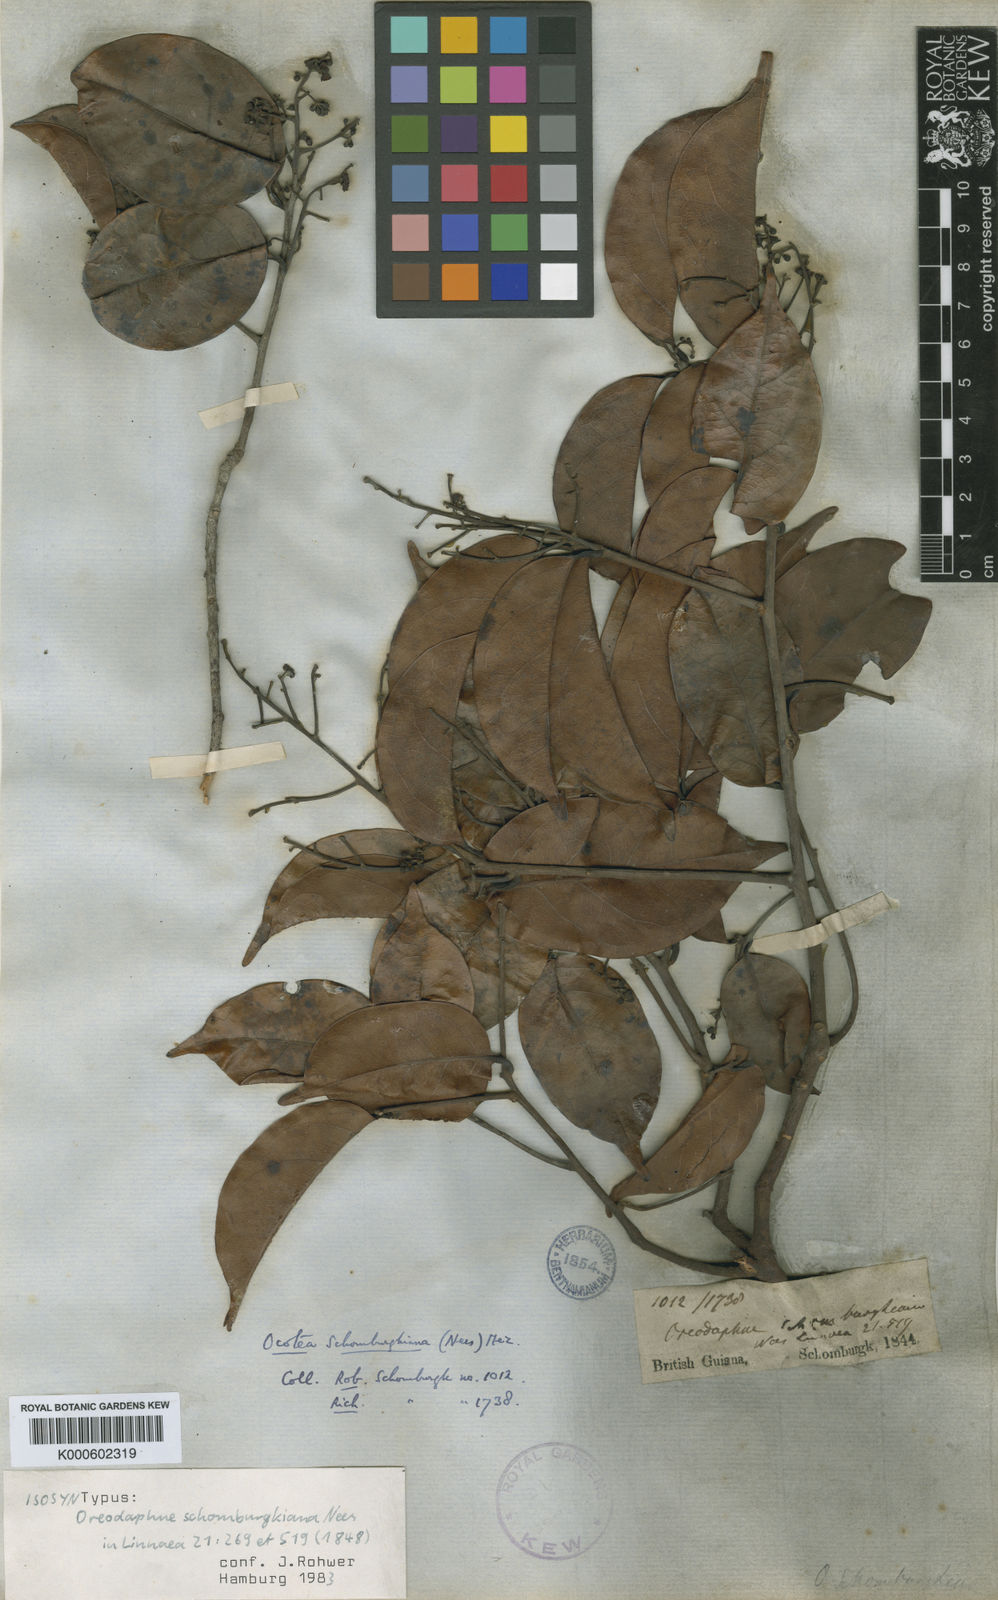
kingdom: Plantae
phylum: Tracheophyta
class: Magnoliopsida
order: Laurales
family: Lauraceae
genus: Ocotea
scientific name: Ocotea schomburgkiana
